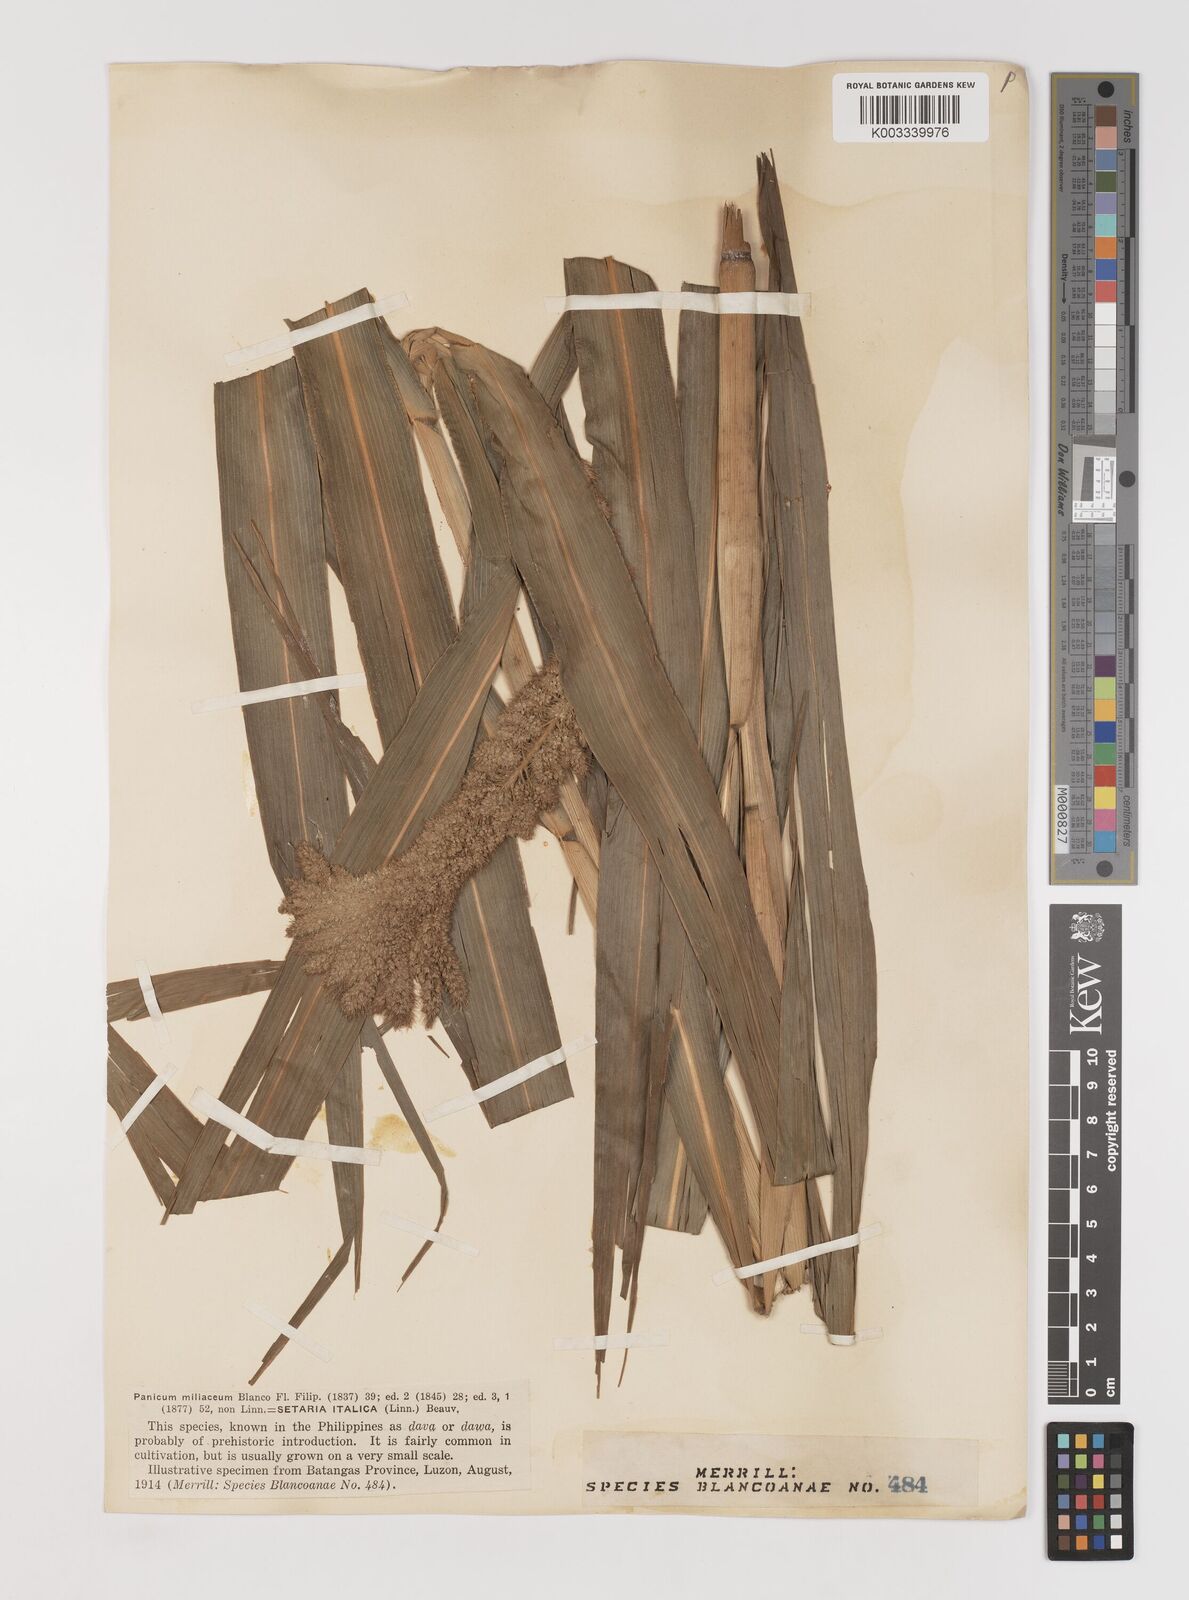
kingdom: Plantae
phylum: Tracheophyta
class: Liliopsida
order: Poales
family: Poaceae
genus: Setaria
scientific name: Setaria italica
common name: Foxtail bristle-grass
